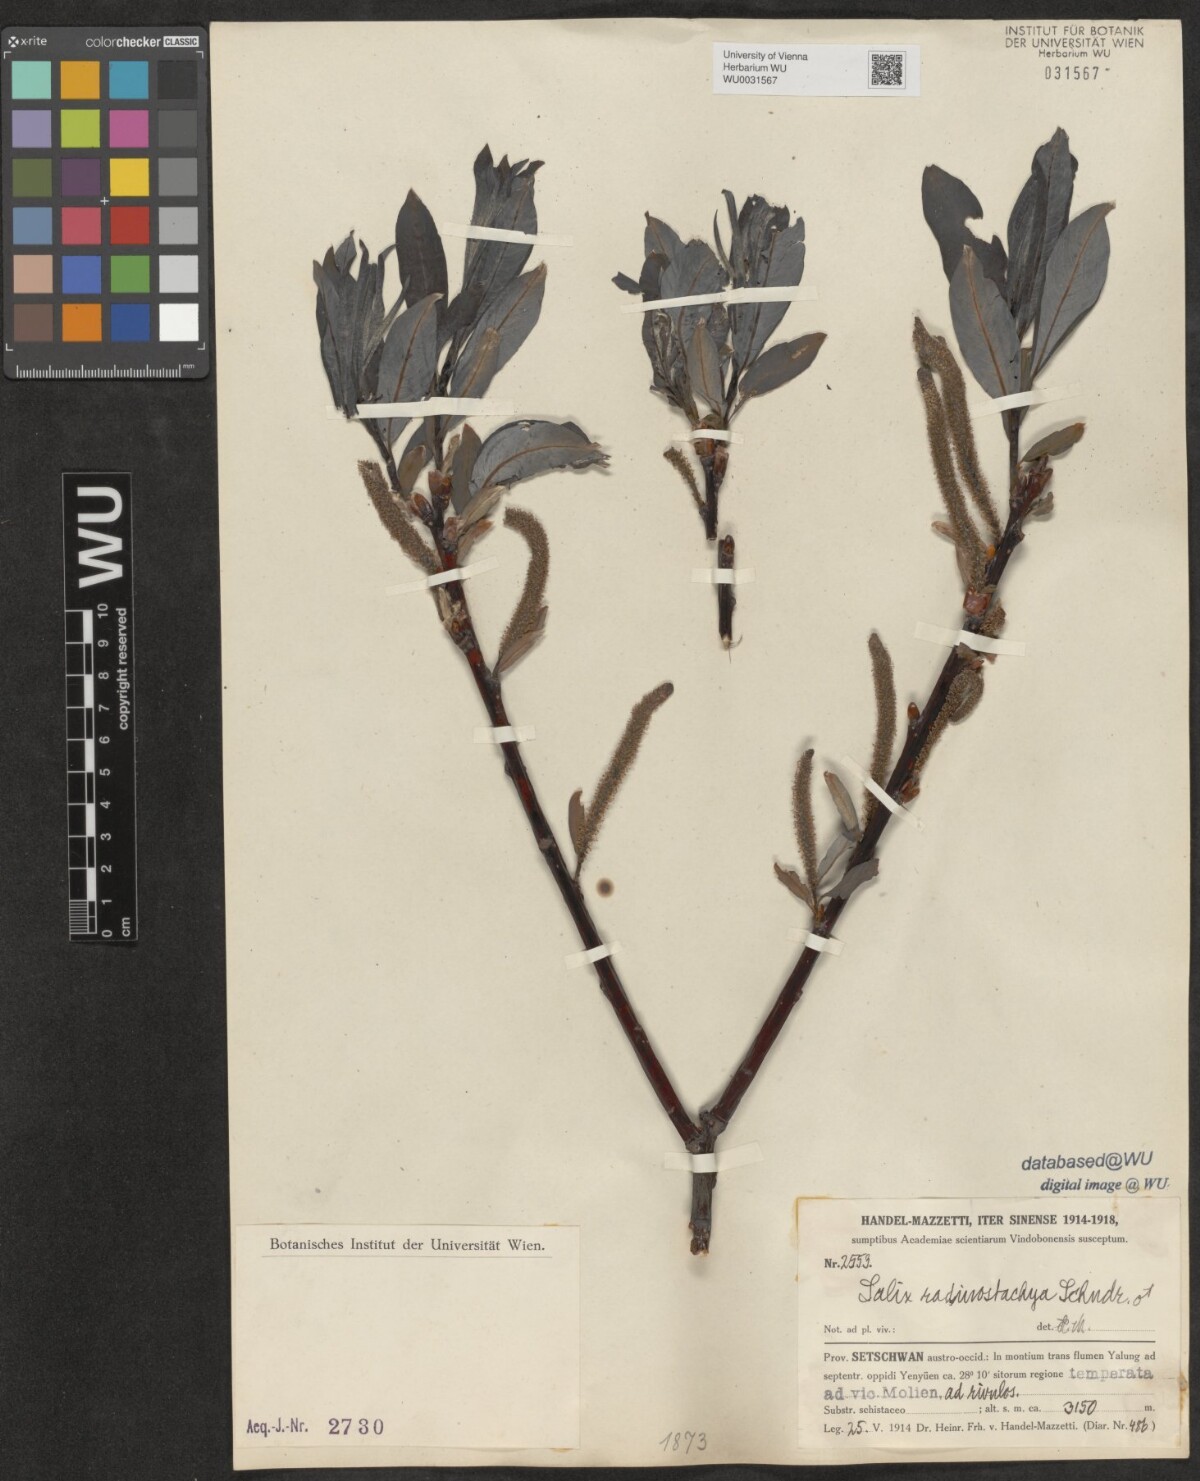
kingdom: Plantae
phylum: Tracheophyta
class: Magnoliopsida
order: Malpighiales
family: Salicaceae
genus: Salix
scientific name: Salix radinostachya
